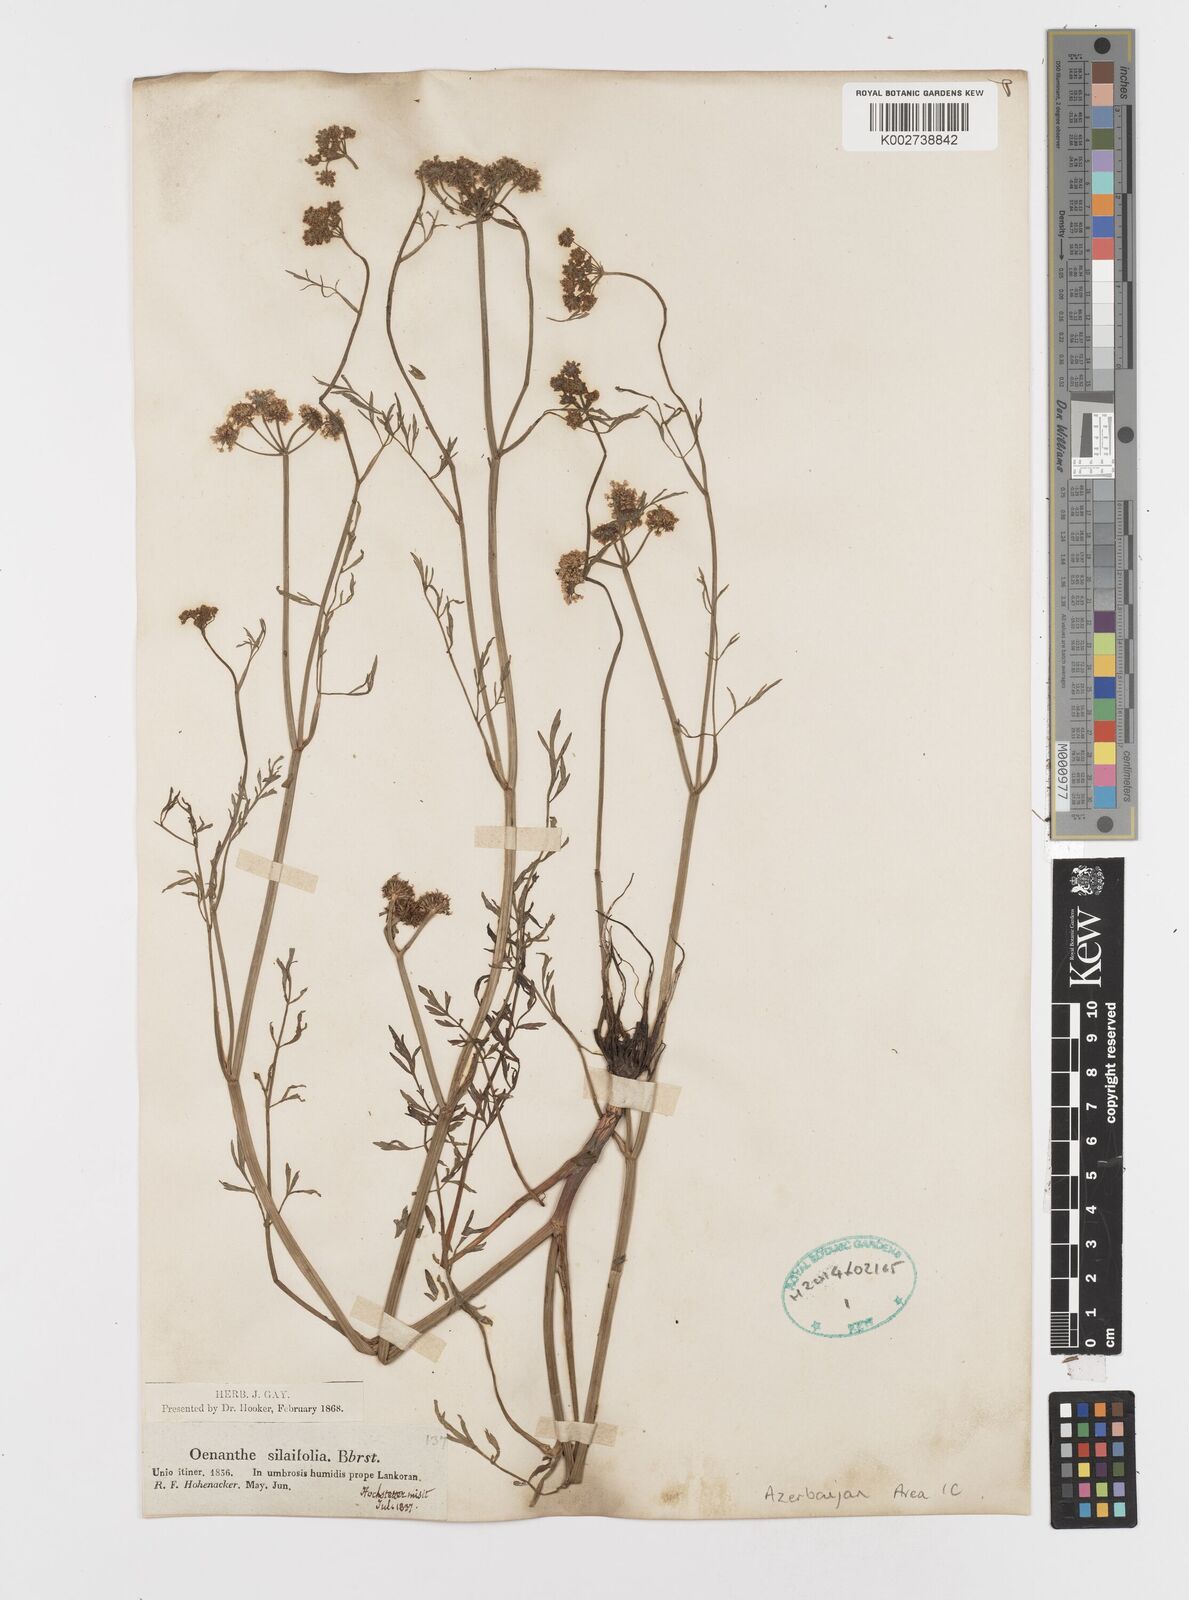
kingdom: Plantae
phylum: Tracheophyta
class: Magnoliopsida
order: Apiales
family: Apiaceae
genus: Oenanthe
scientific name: Oenanthe silaifolia
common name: Narrow-leaved water-dropwort
